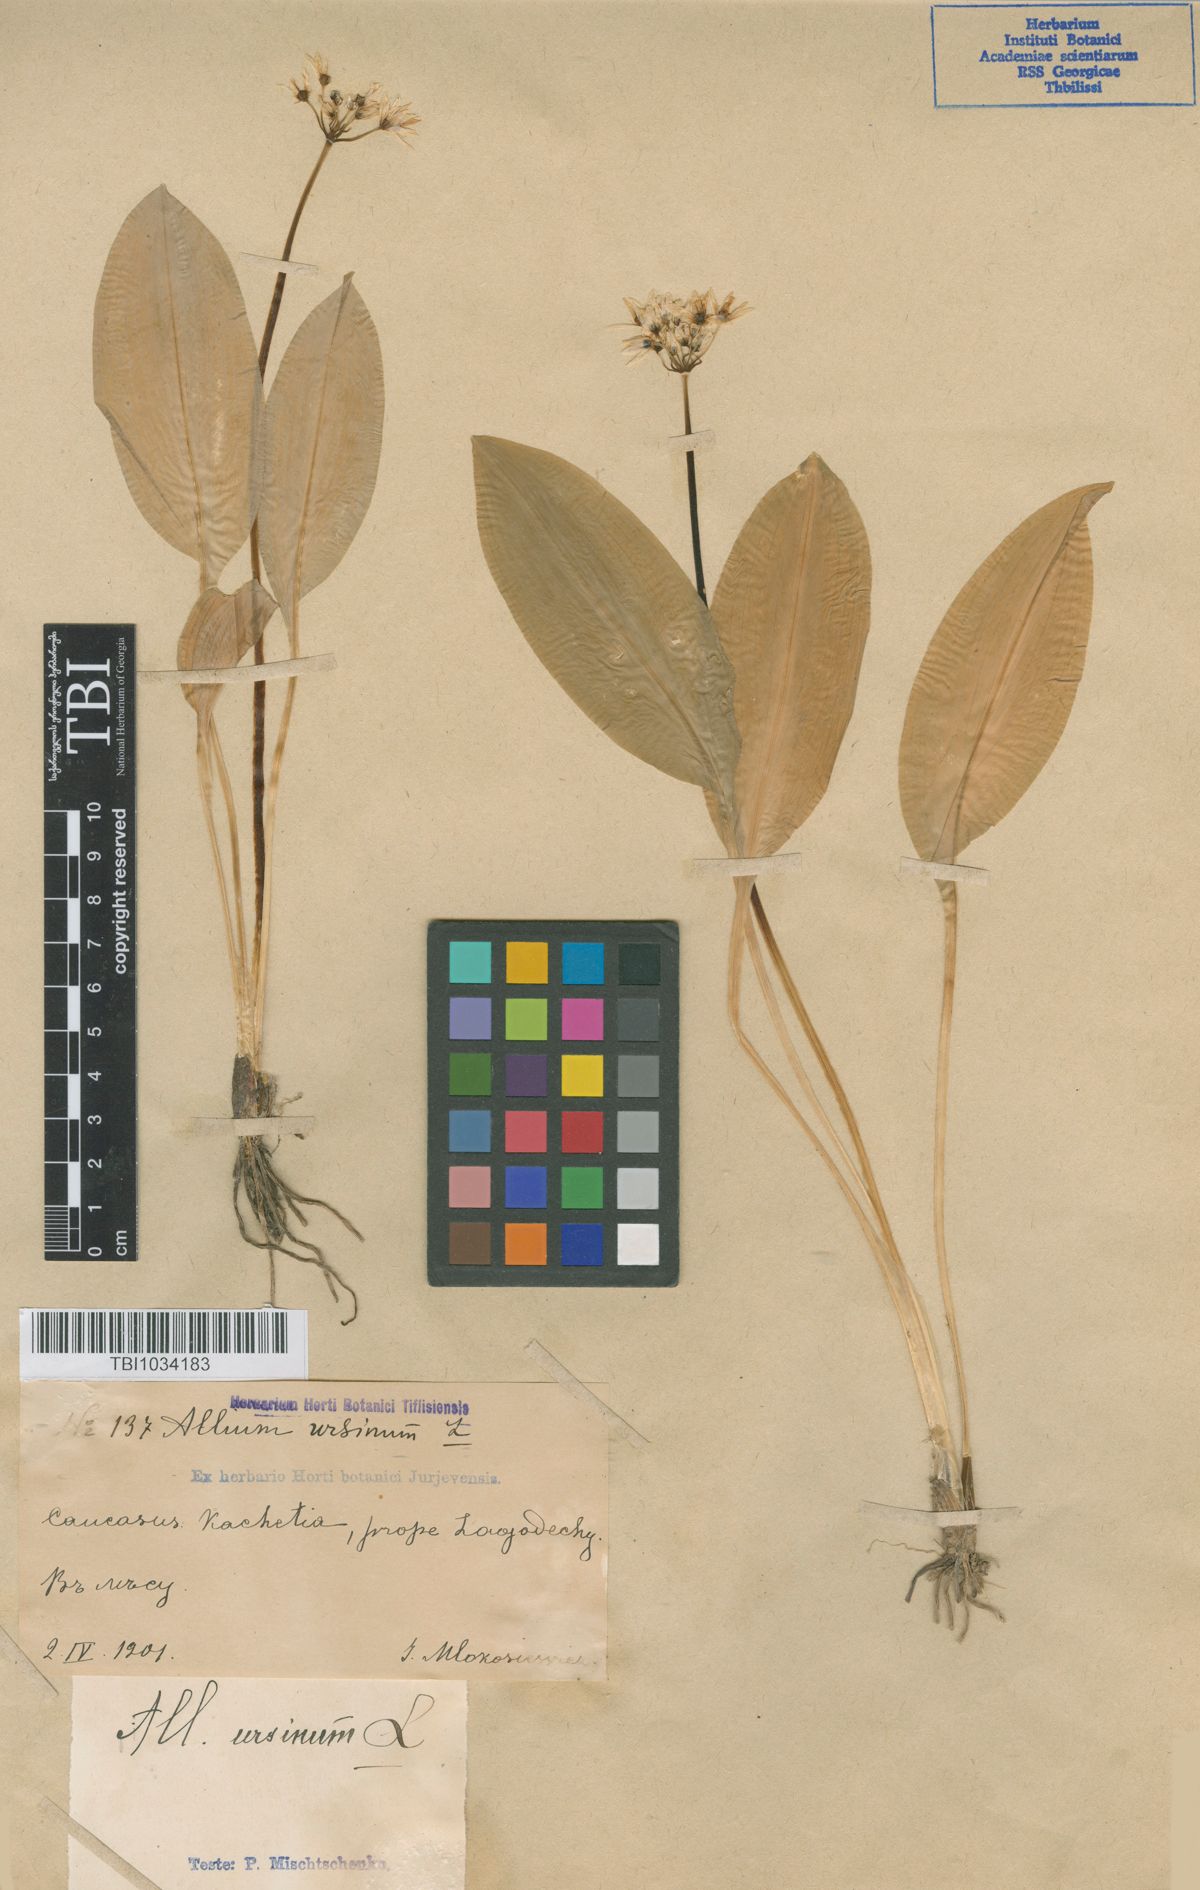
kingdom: Plantae
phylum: Tracheophyta
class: Liliopsida
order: Asparagales
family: Amaryllidaceae
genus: Allium
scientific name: Allium ursinum
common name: Ramsons
